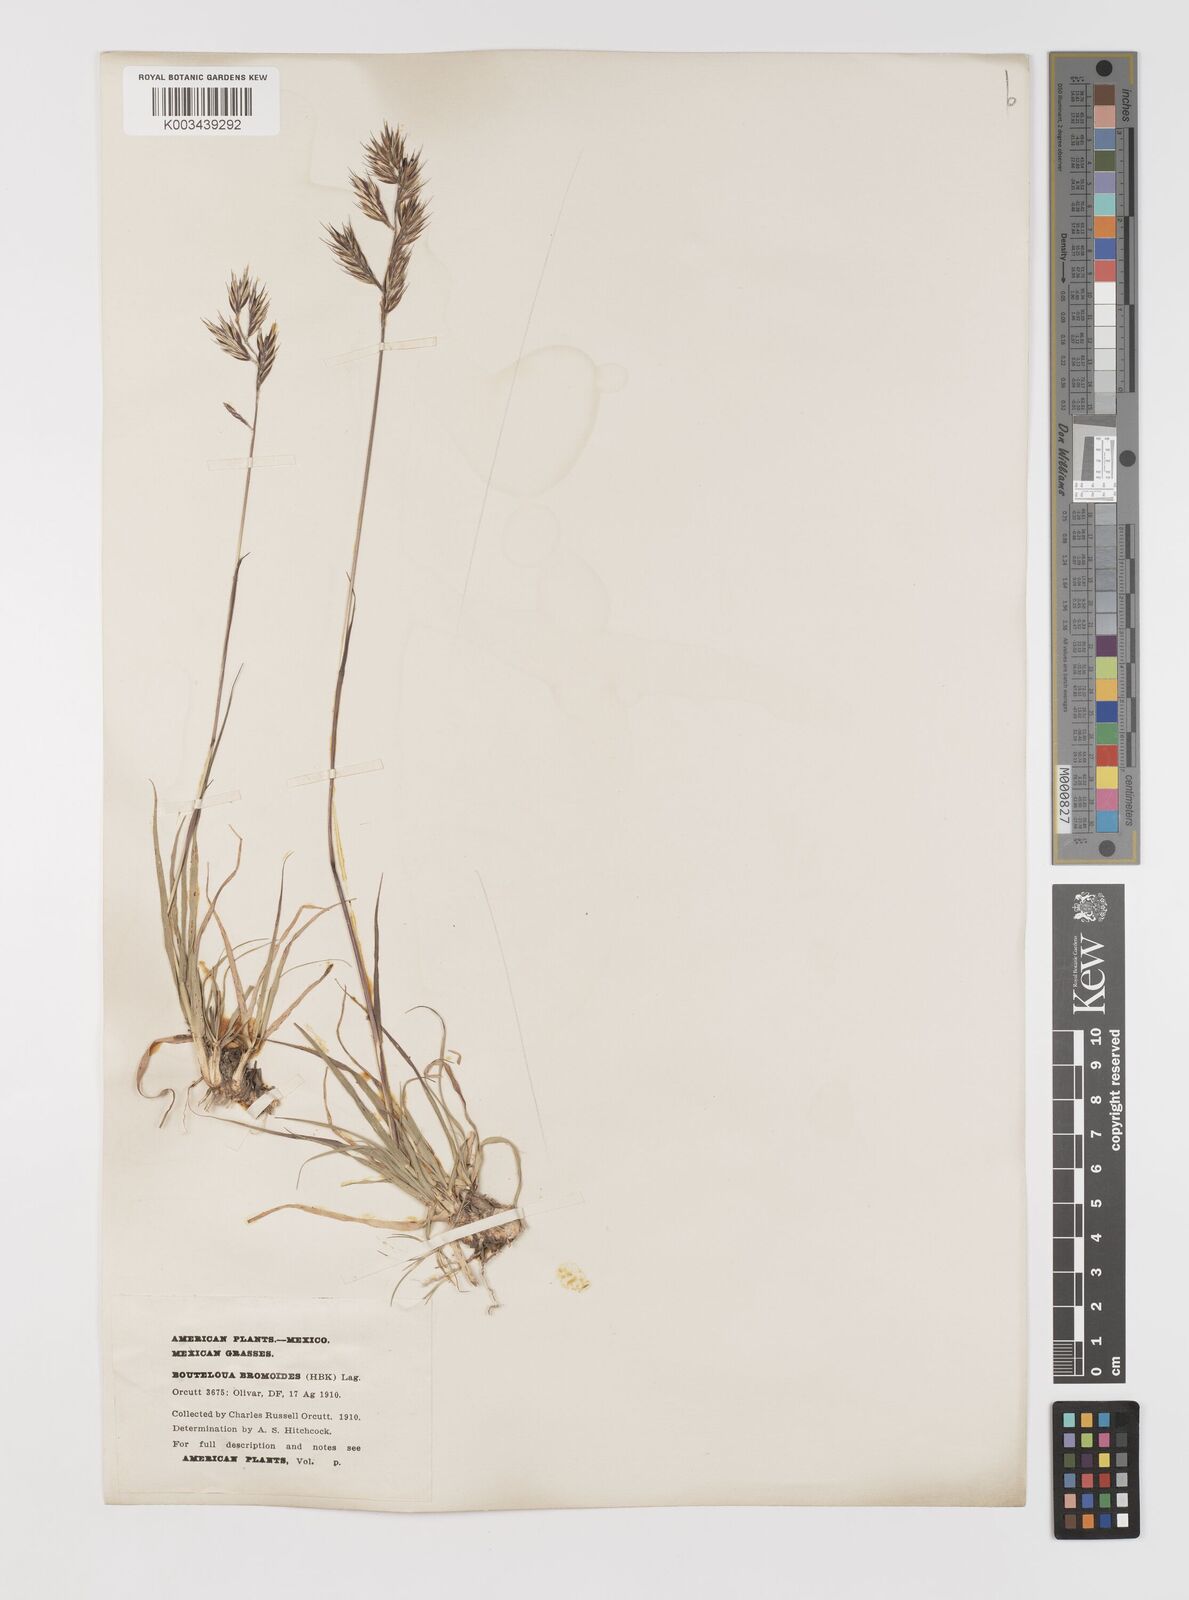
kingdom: Plantae
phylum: Tracheophyta
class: Liliopsida
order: Poales
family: Poaceae
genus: Bouteloua
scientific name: Bouteloua repens
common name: Slender grama
